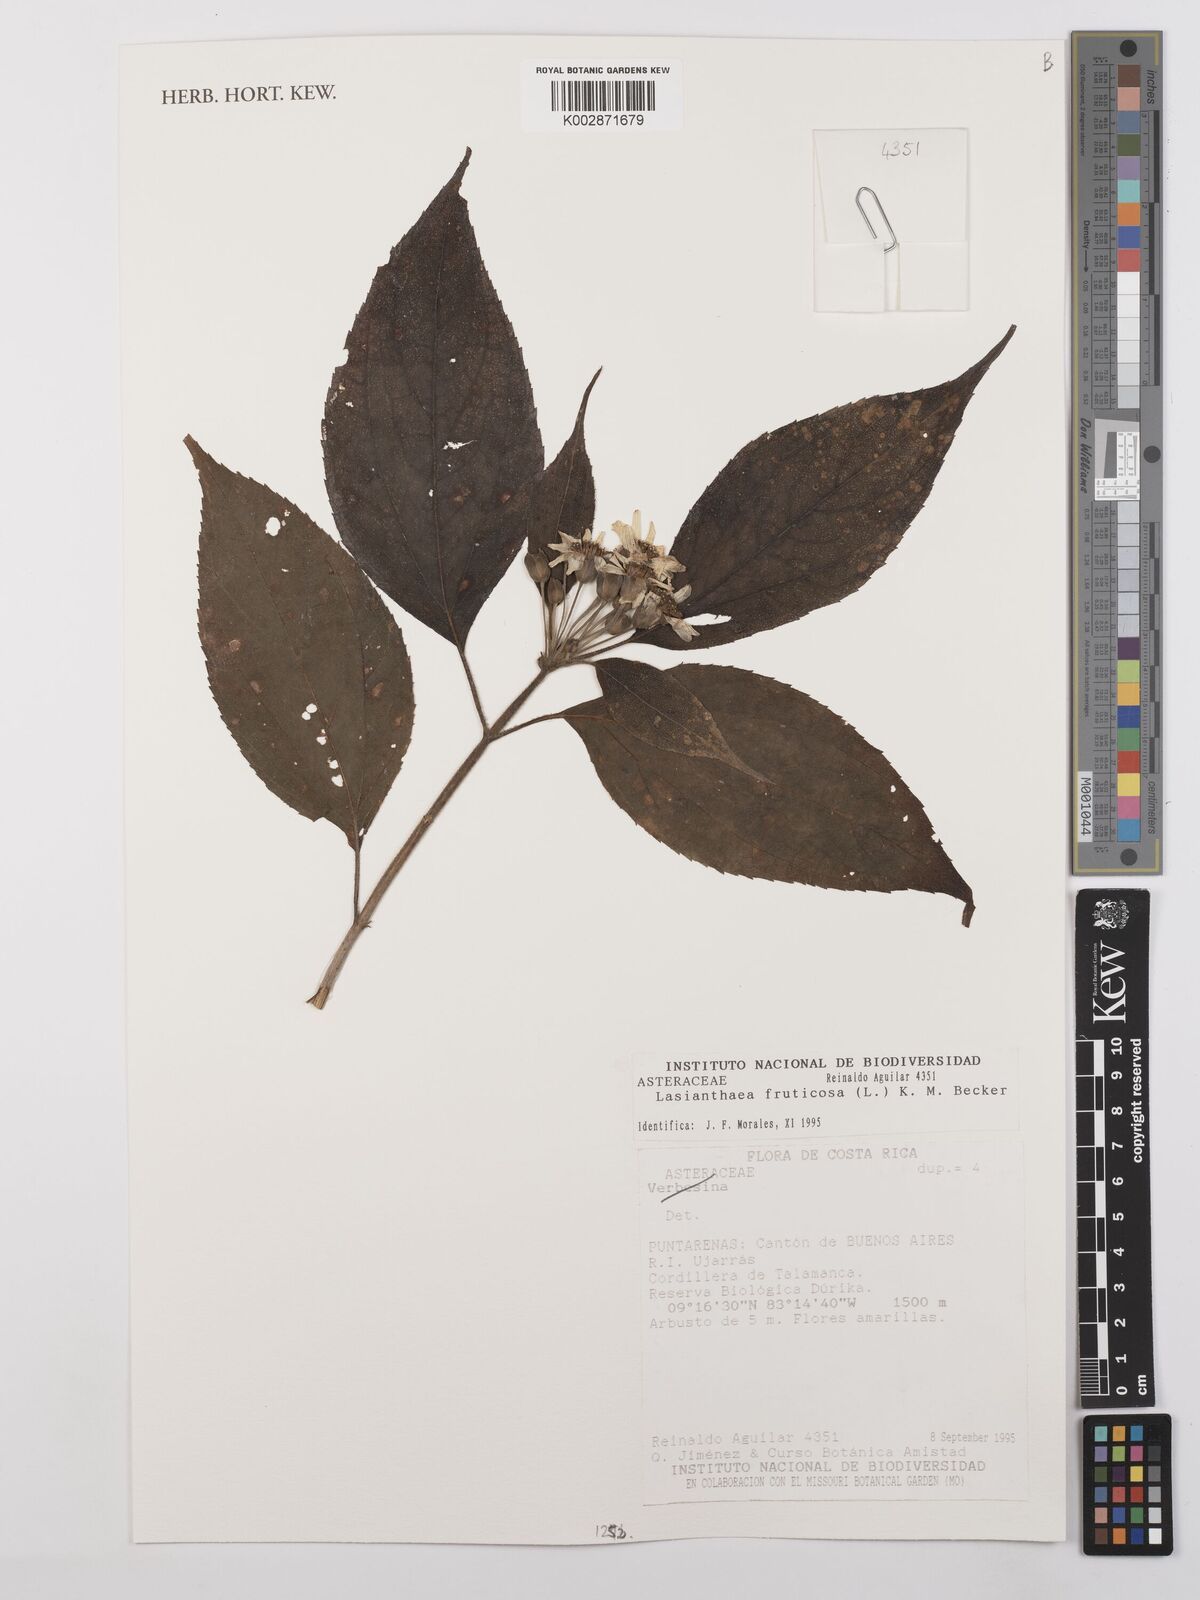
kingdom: Plantae
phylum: Tracheophyta
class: Magnoliopsida
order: Asterales
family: Asteraceae
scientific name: Asteraceae
